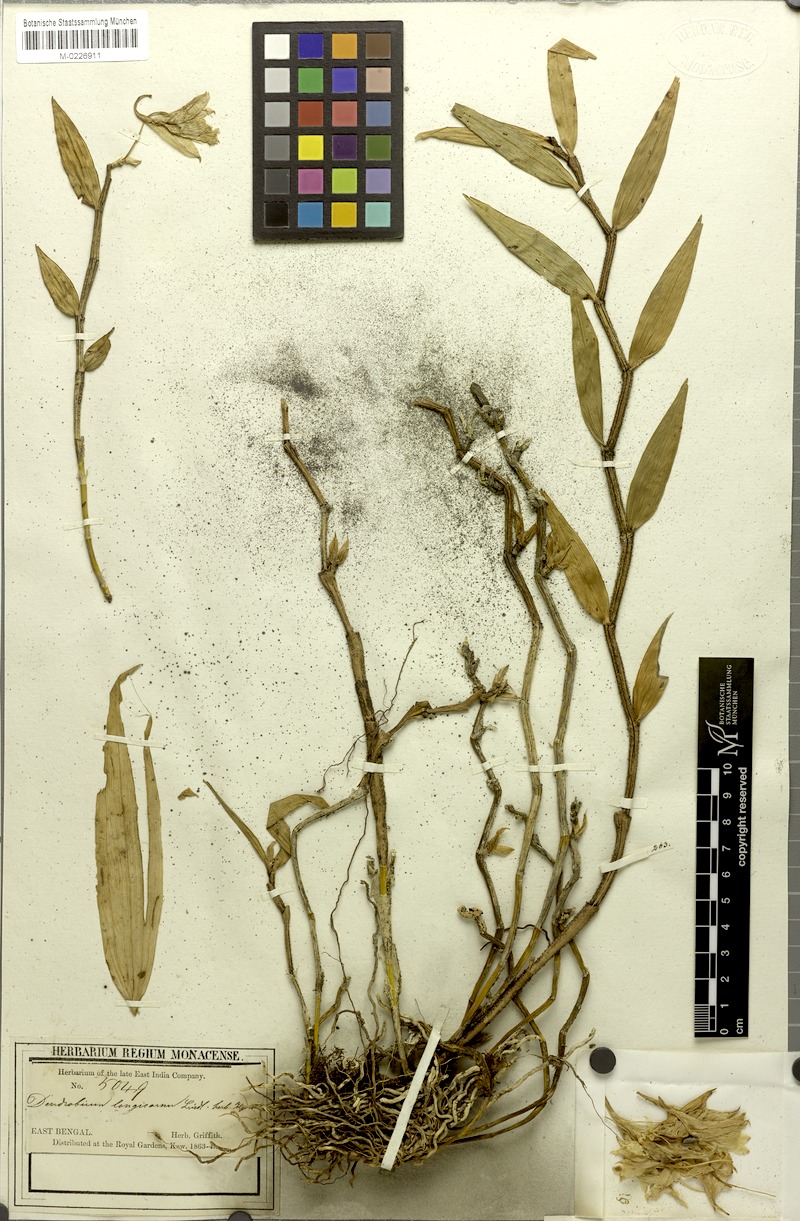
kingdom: Plantae
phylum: Tracheophyta
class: Liliopsida
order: Asparagales
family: Orchidaceae
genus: Dendrobium
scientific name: Dendrobium longicornu
